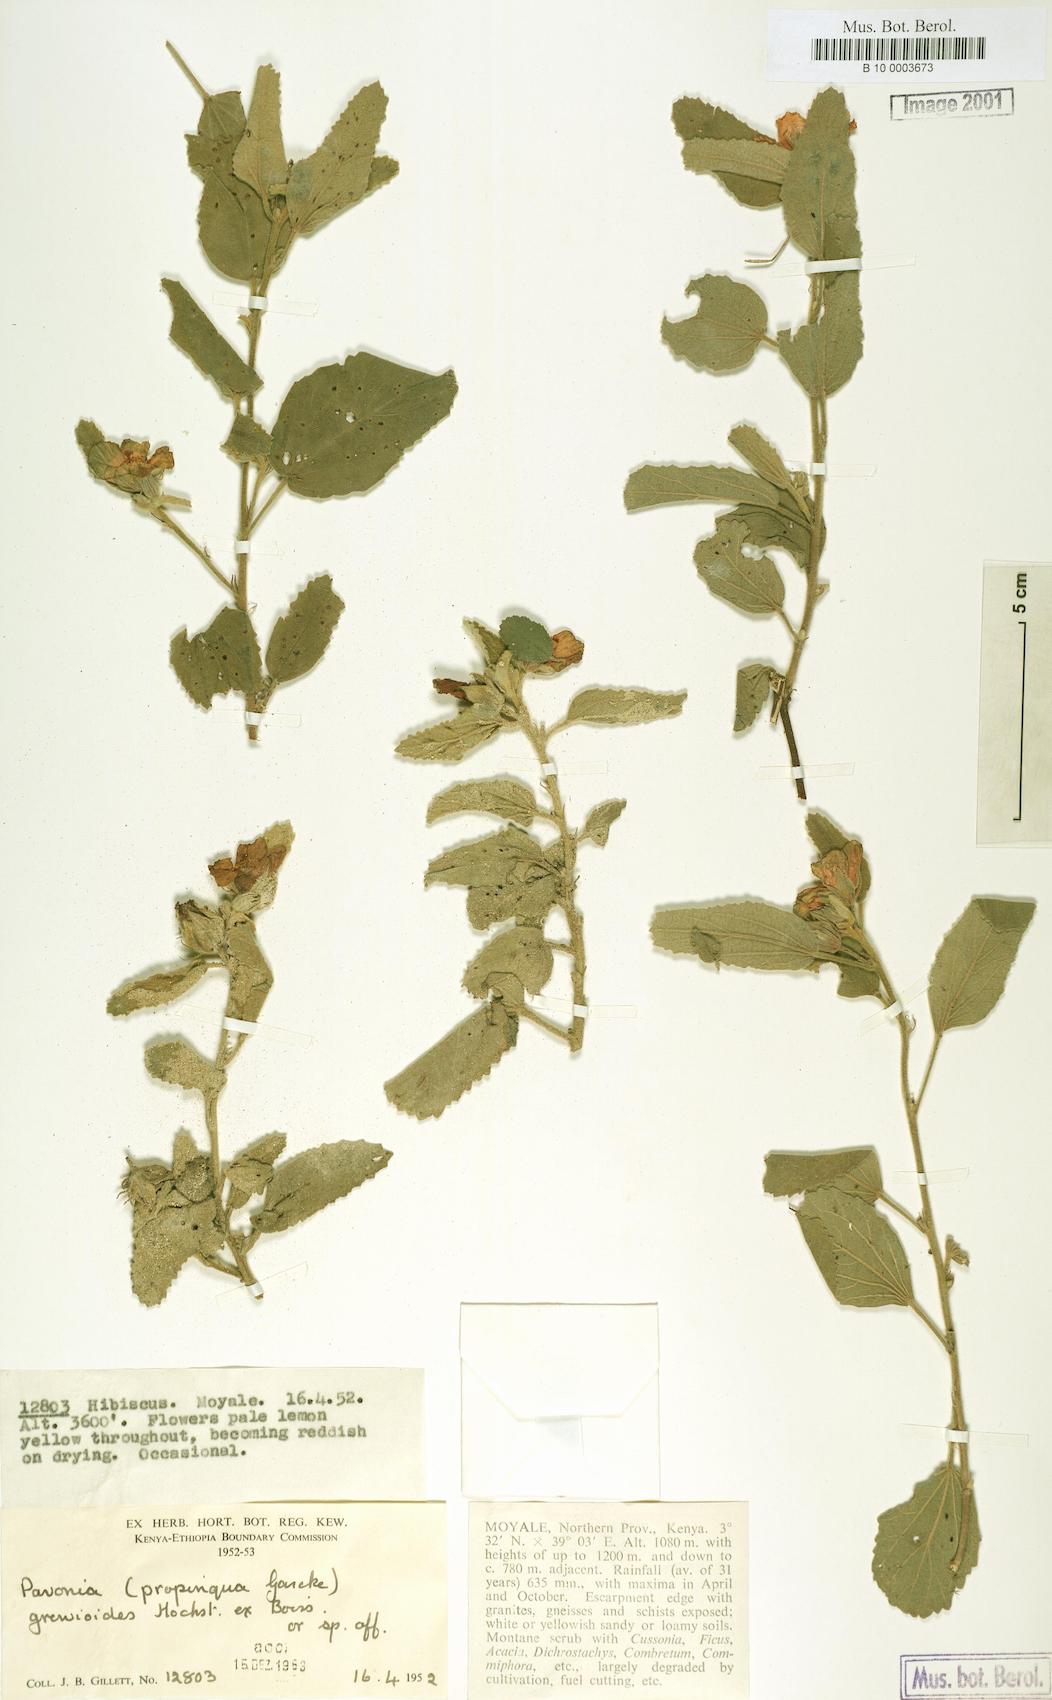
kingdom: Plantae
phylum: Tracheophyta
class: Magnoliopsida
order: Malvales
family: Malvaceae
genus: Pavonia
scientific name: Pavonia propinqua
